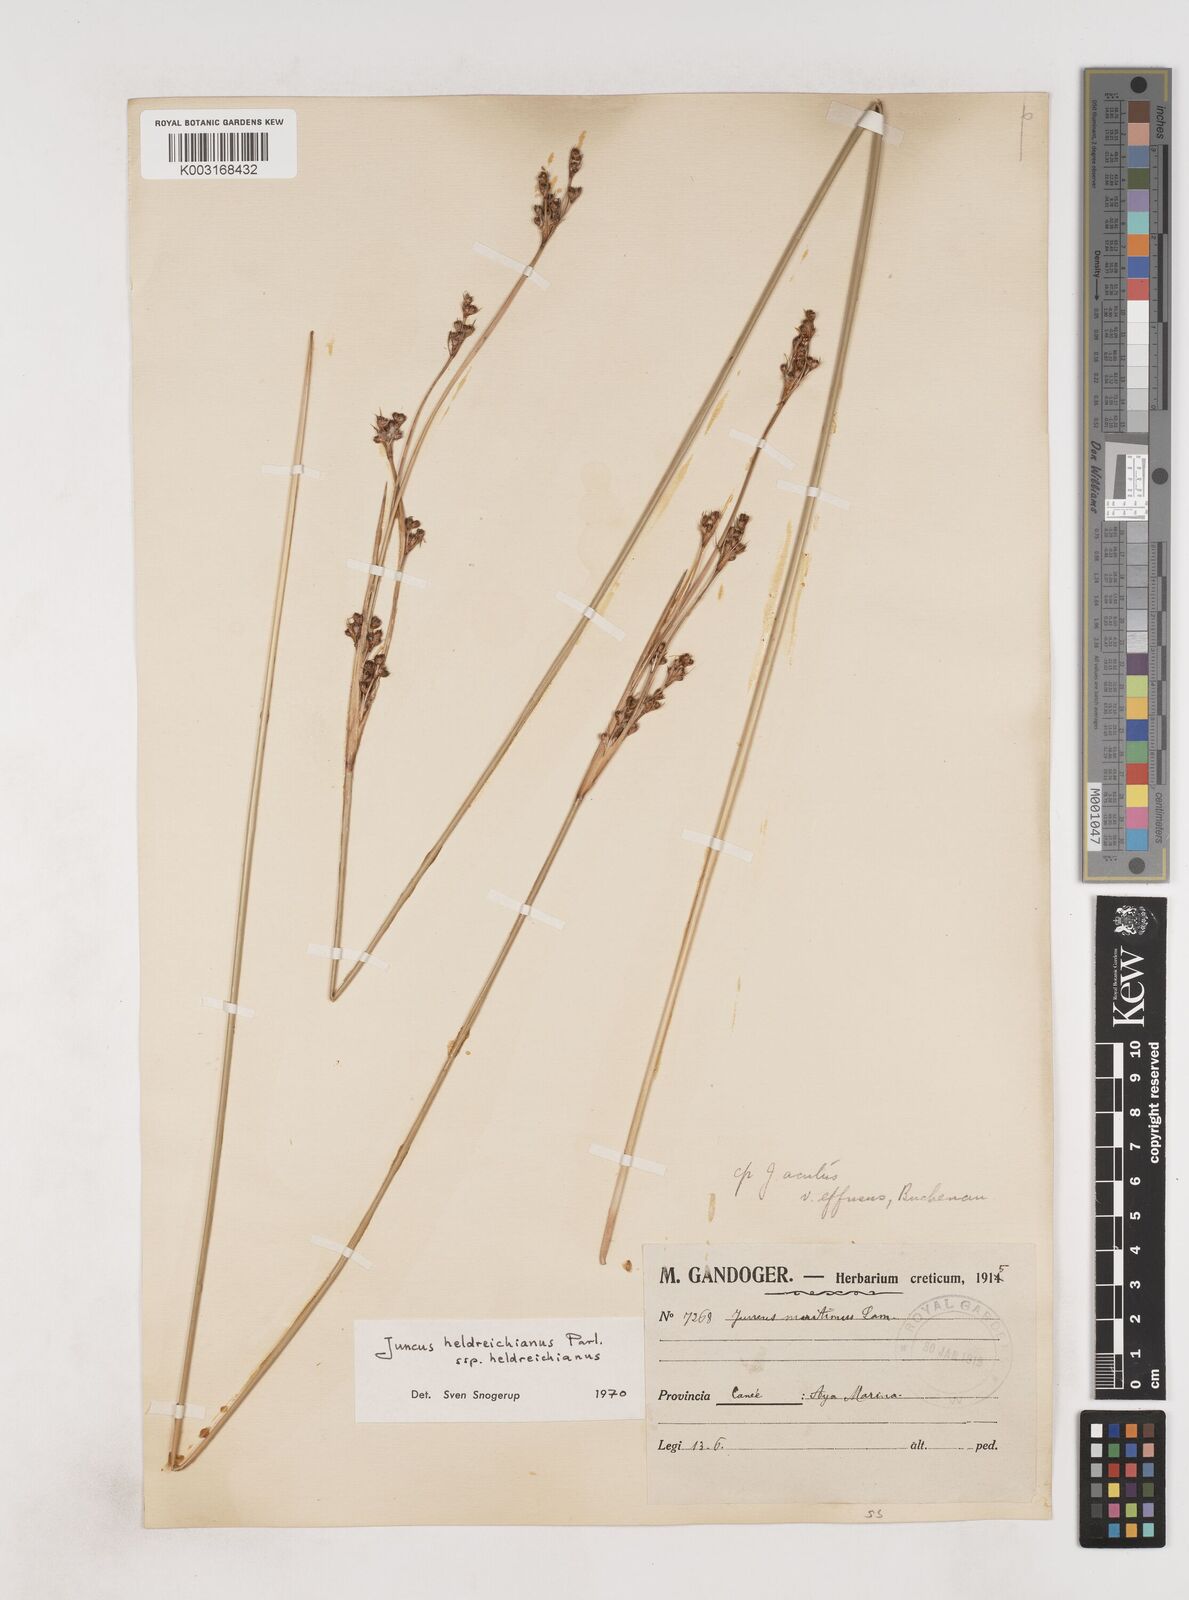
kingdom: Plantae
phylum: Tracheophyta
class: Liliopsida
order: Poales
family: Juncaceae
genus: Juncus
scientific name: Juncus heldreichianus
